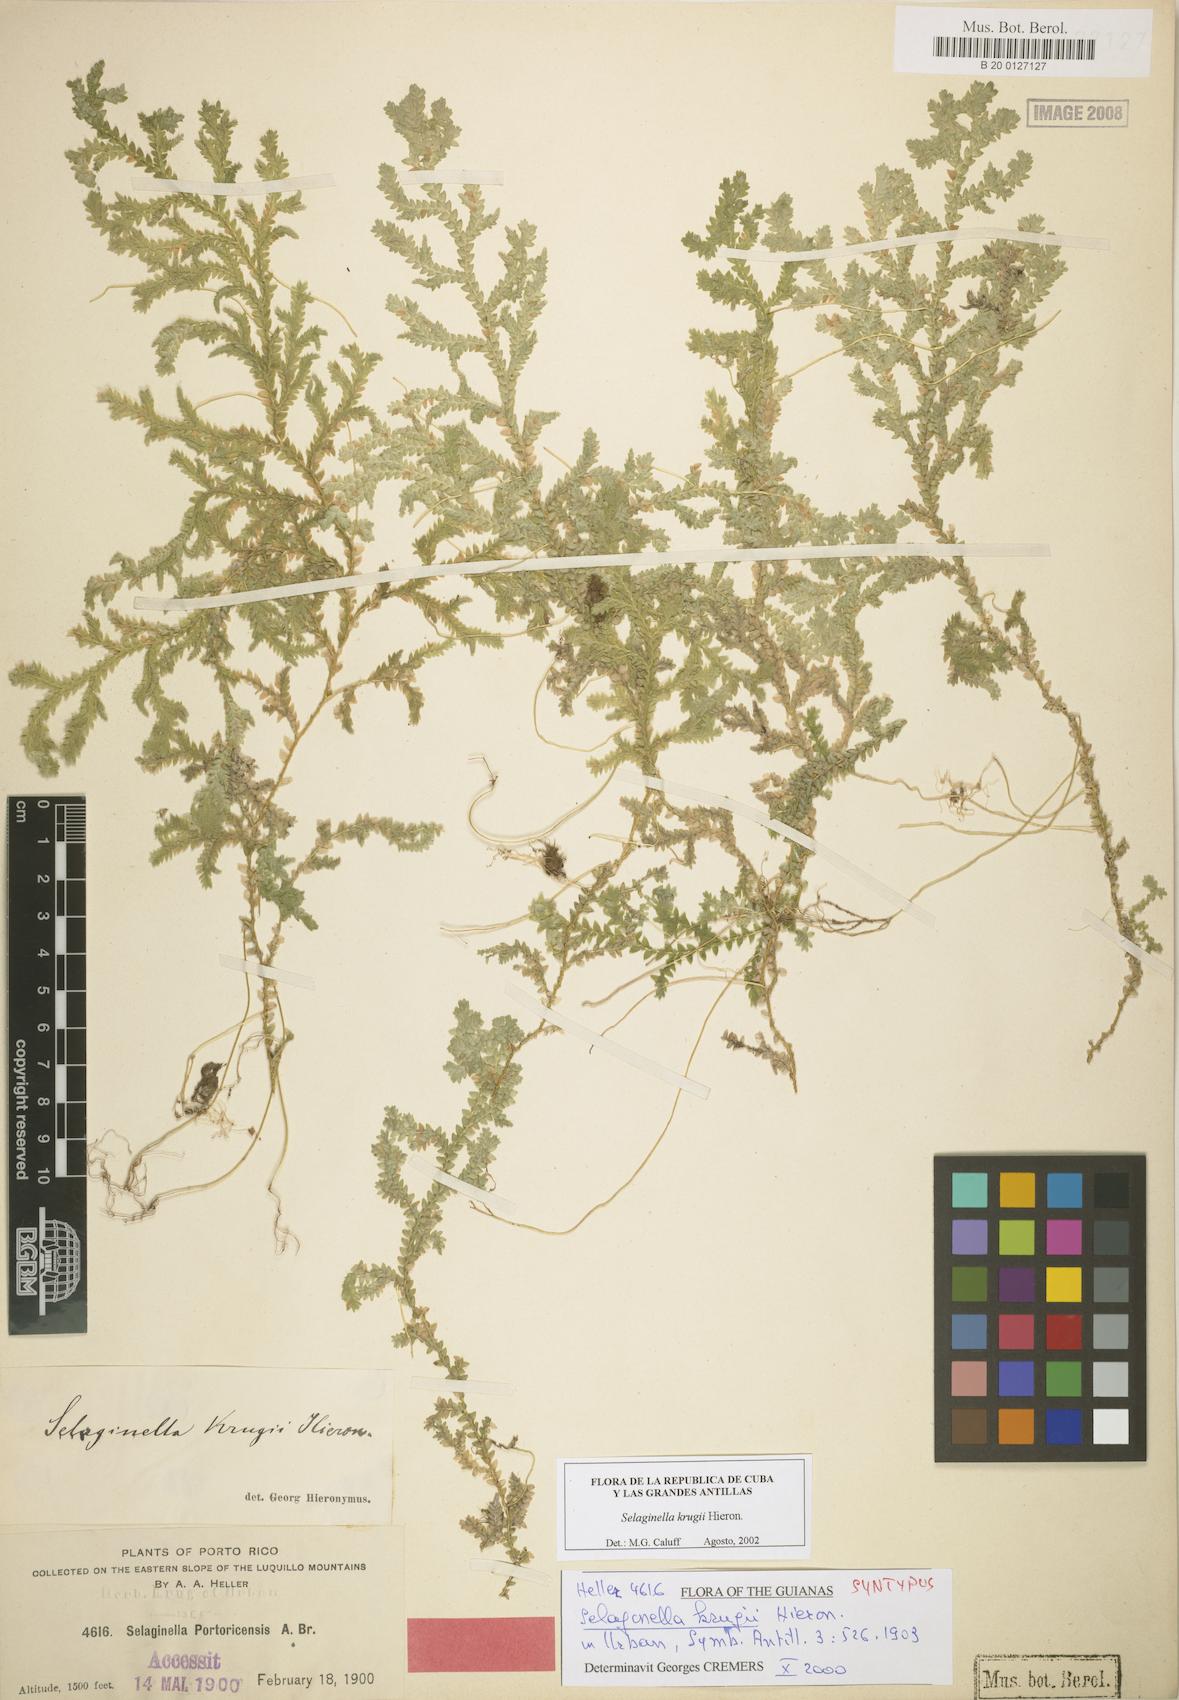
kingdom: Plantae
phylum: Tracheophyta
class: Lycopodiopsida
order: Selaginellales
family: Selaginellaceae
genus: Selaginella
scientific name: Selaginella krugii
